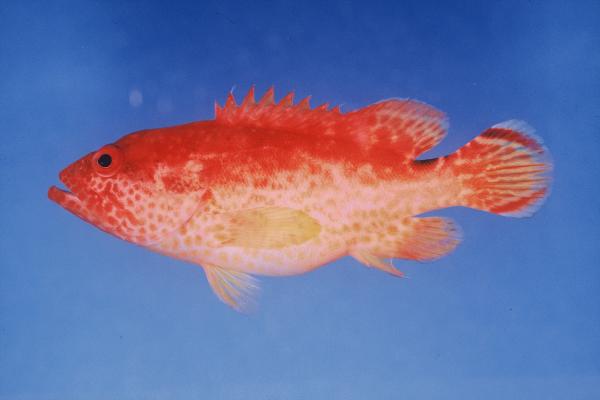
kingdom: Animalia
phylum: Chordata
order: Perciformes
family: Serranidae
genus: Cephalopholis
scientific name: Cephalopholis leopardus
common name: Leopard hind
